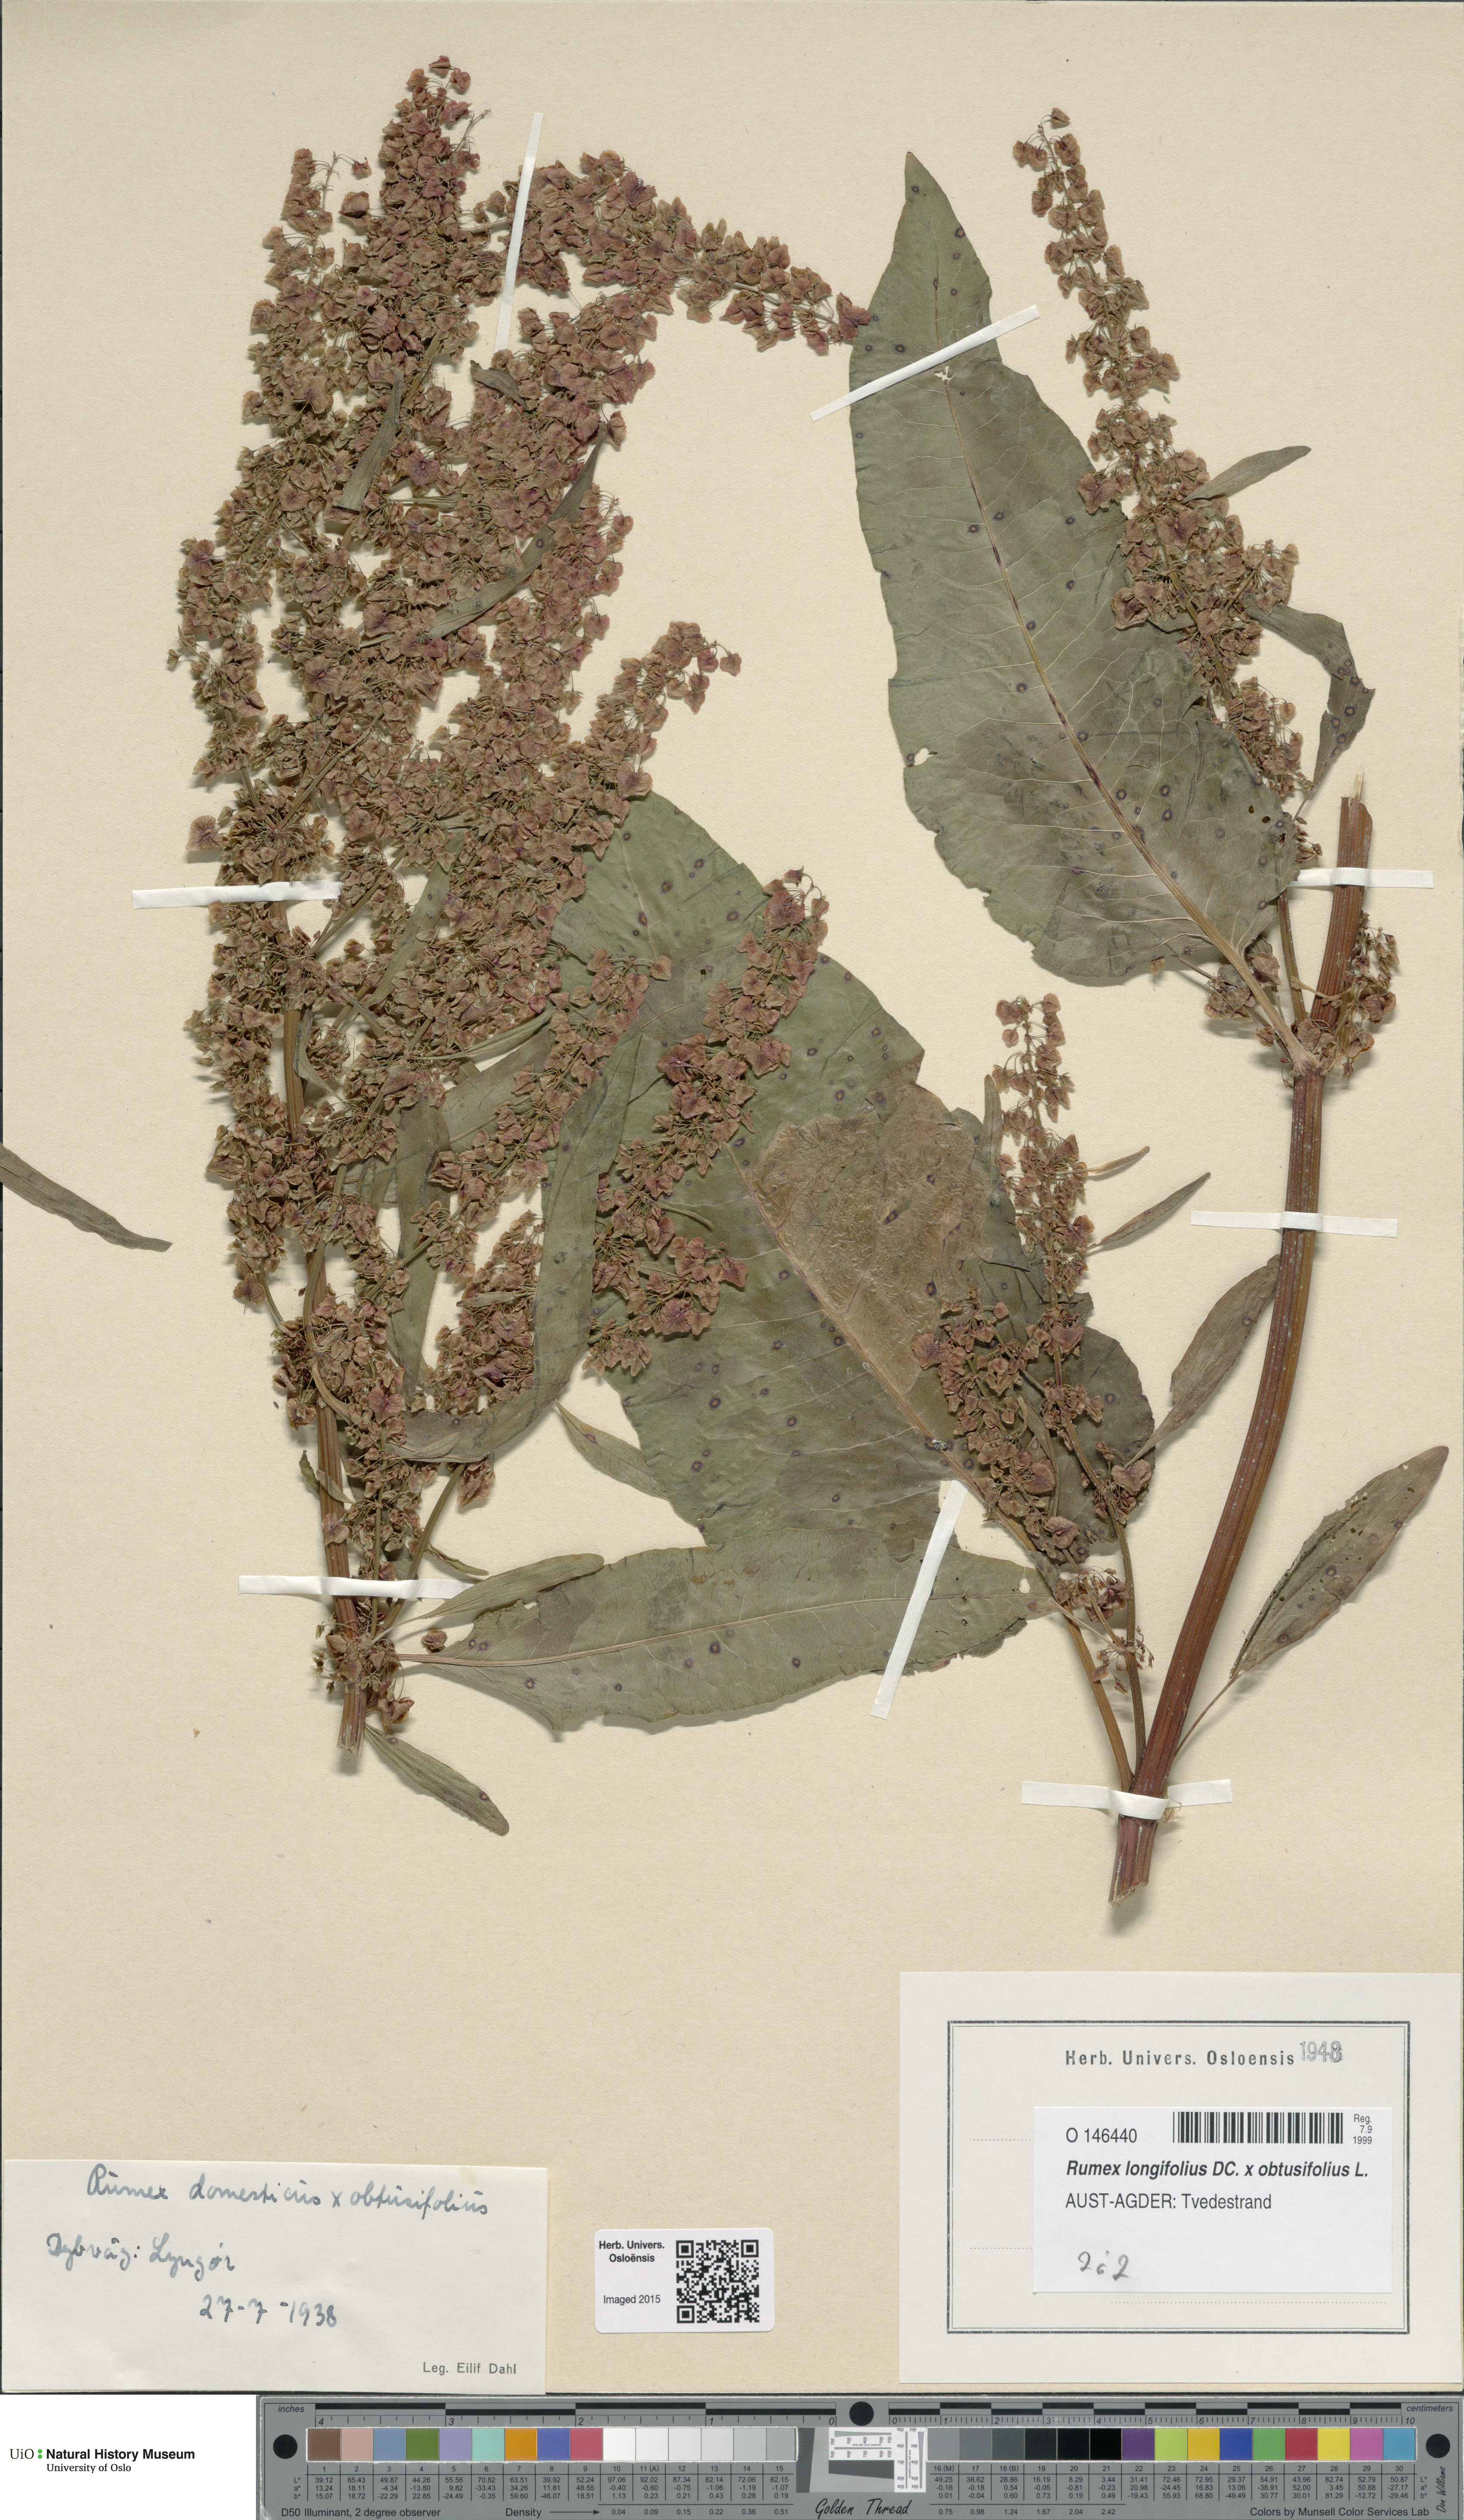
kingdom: Plantae
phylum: Tracheophyta
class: Magnoliopsida
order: Caryophyllales
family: Polygonaceae
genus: Rumex
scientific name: Rumex
